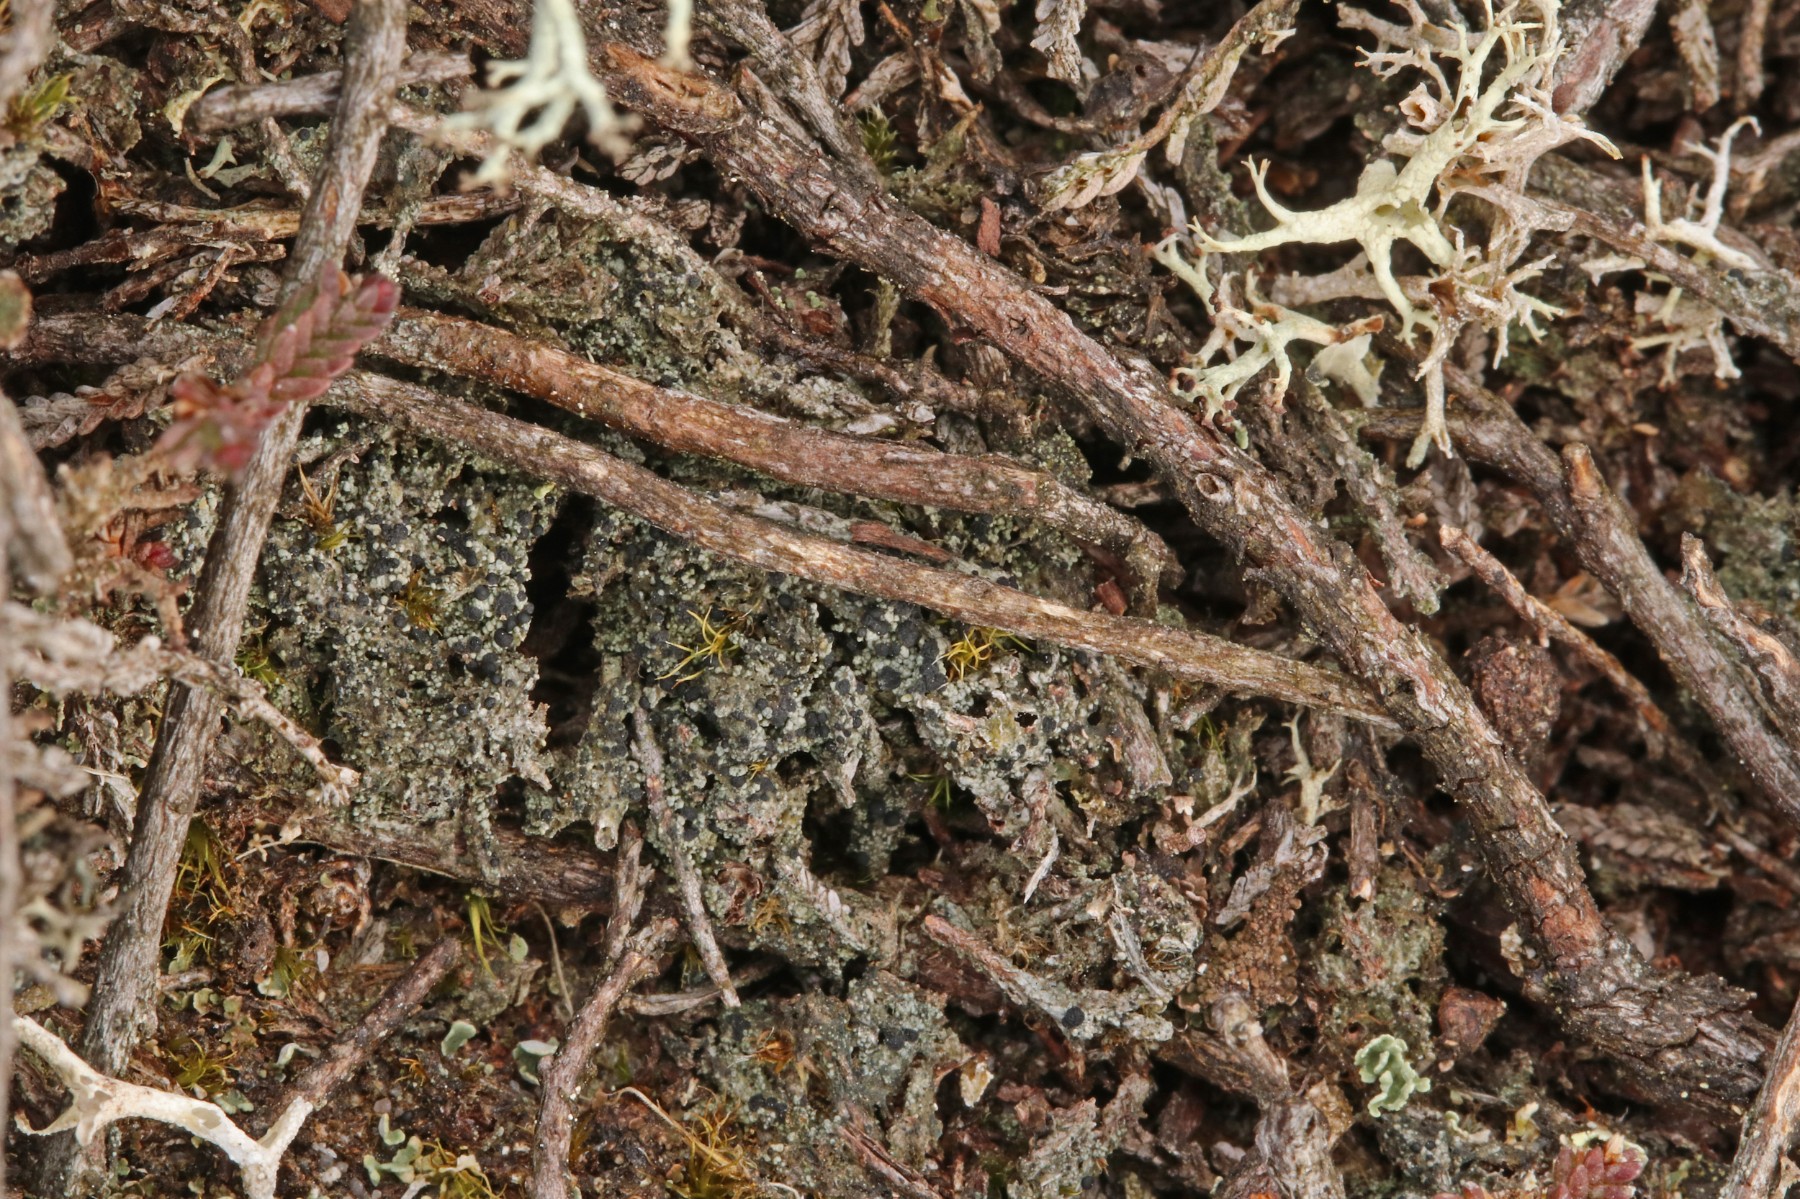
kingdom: Fungi
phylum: Ascomycota
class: Lecanoromycetes
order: Lecanorales
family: Byssolomataceae
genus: Micarea
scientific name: Micarea lignaria
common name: tørve-knaplav
